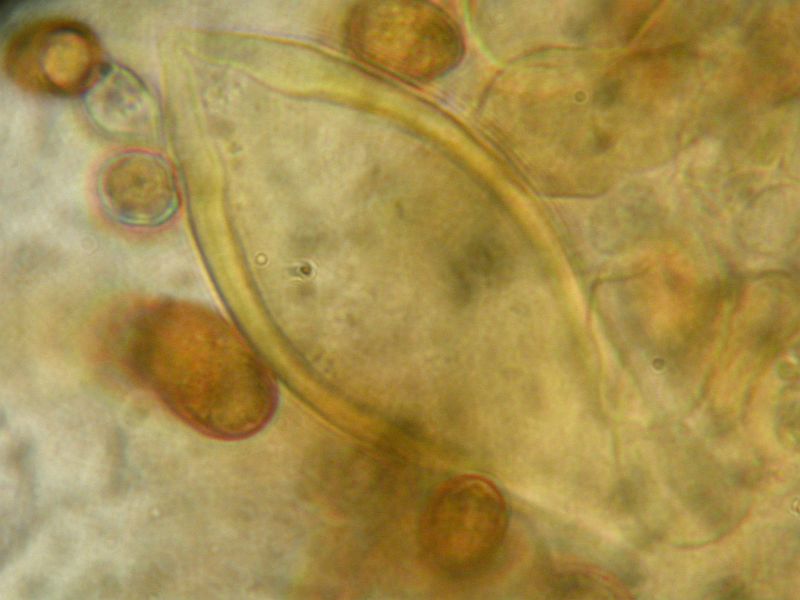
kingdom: Fungi
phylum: Basidiomycota
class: Agaricomycetes
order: Agaricales
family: Inocybaceae
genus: Inocybe
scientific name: Inocybe acuta
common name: papil-trævlhat
